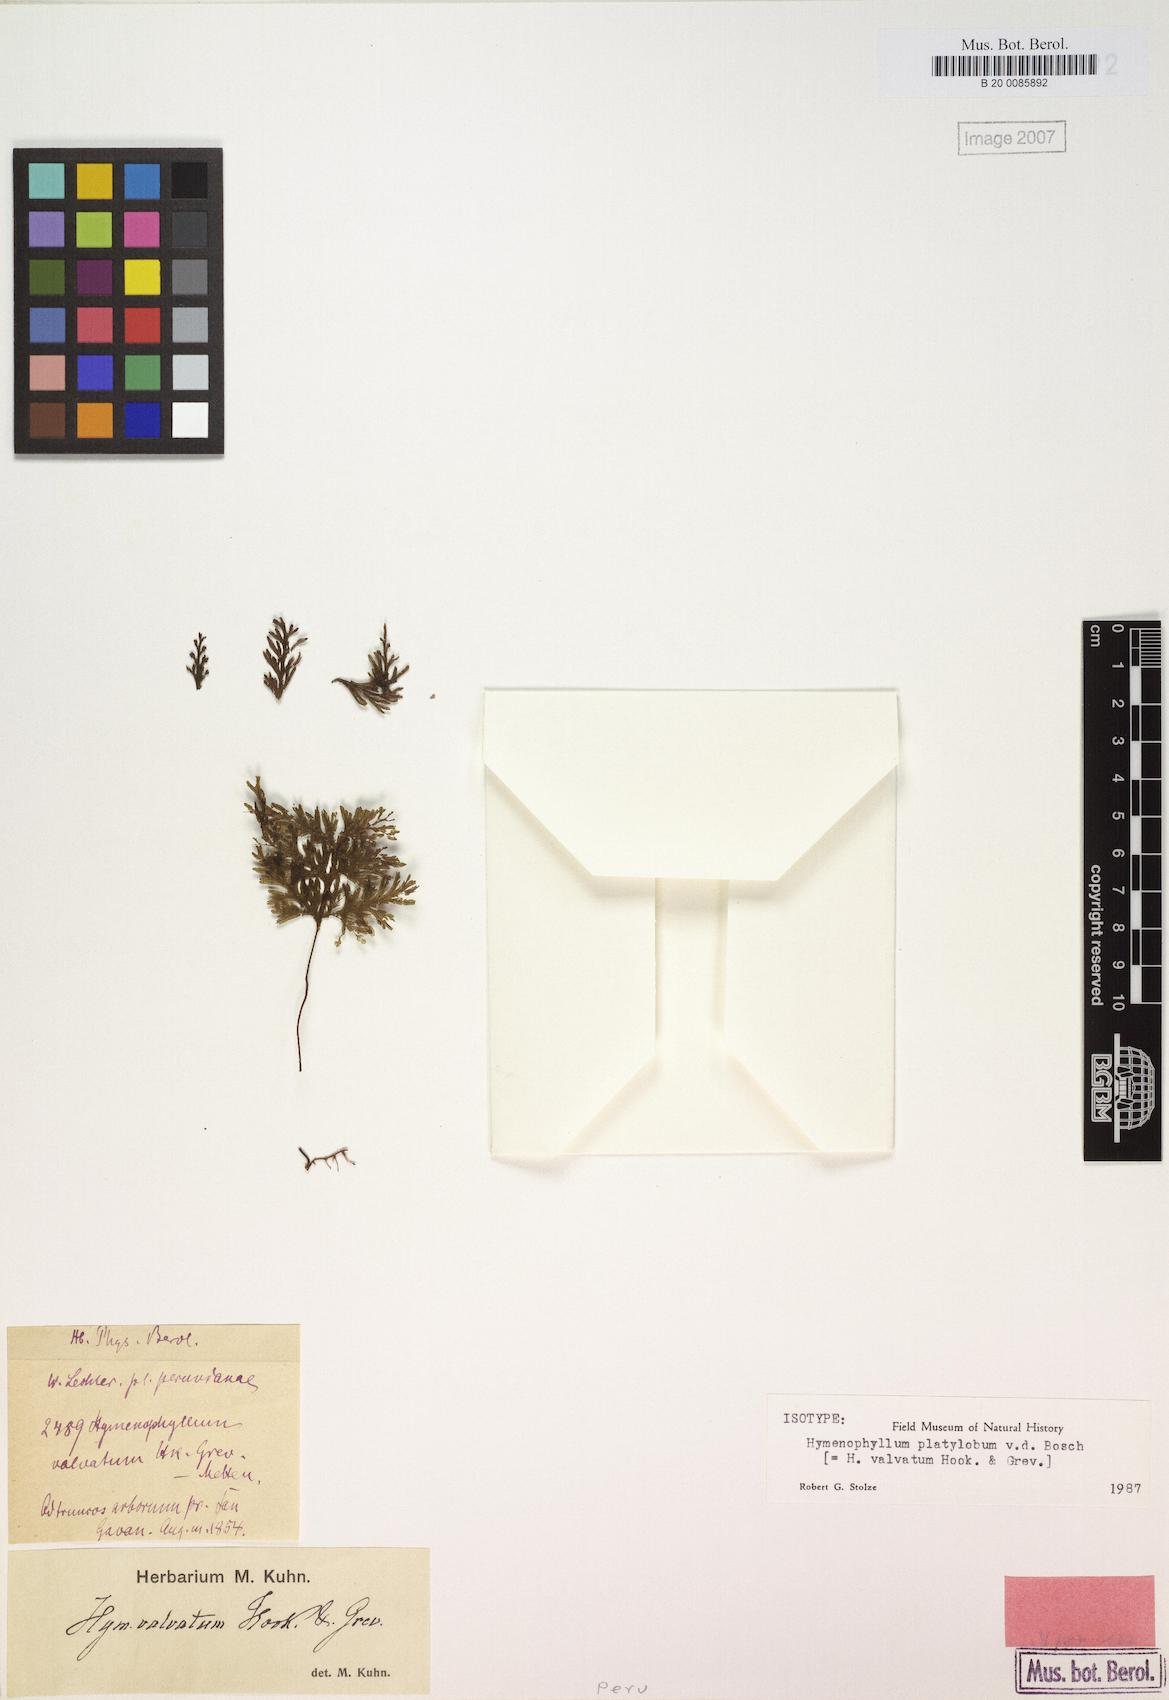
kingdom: Plantae
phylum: Tracheophyta
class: Polypodiopsida
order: Hymenophyllales
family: Hymenophyllaceae
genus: Hymenophyllum
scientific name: Hymenophyllum valvatum
